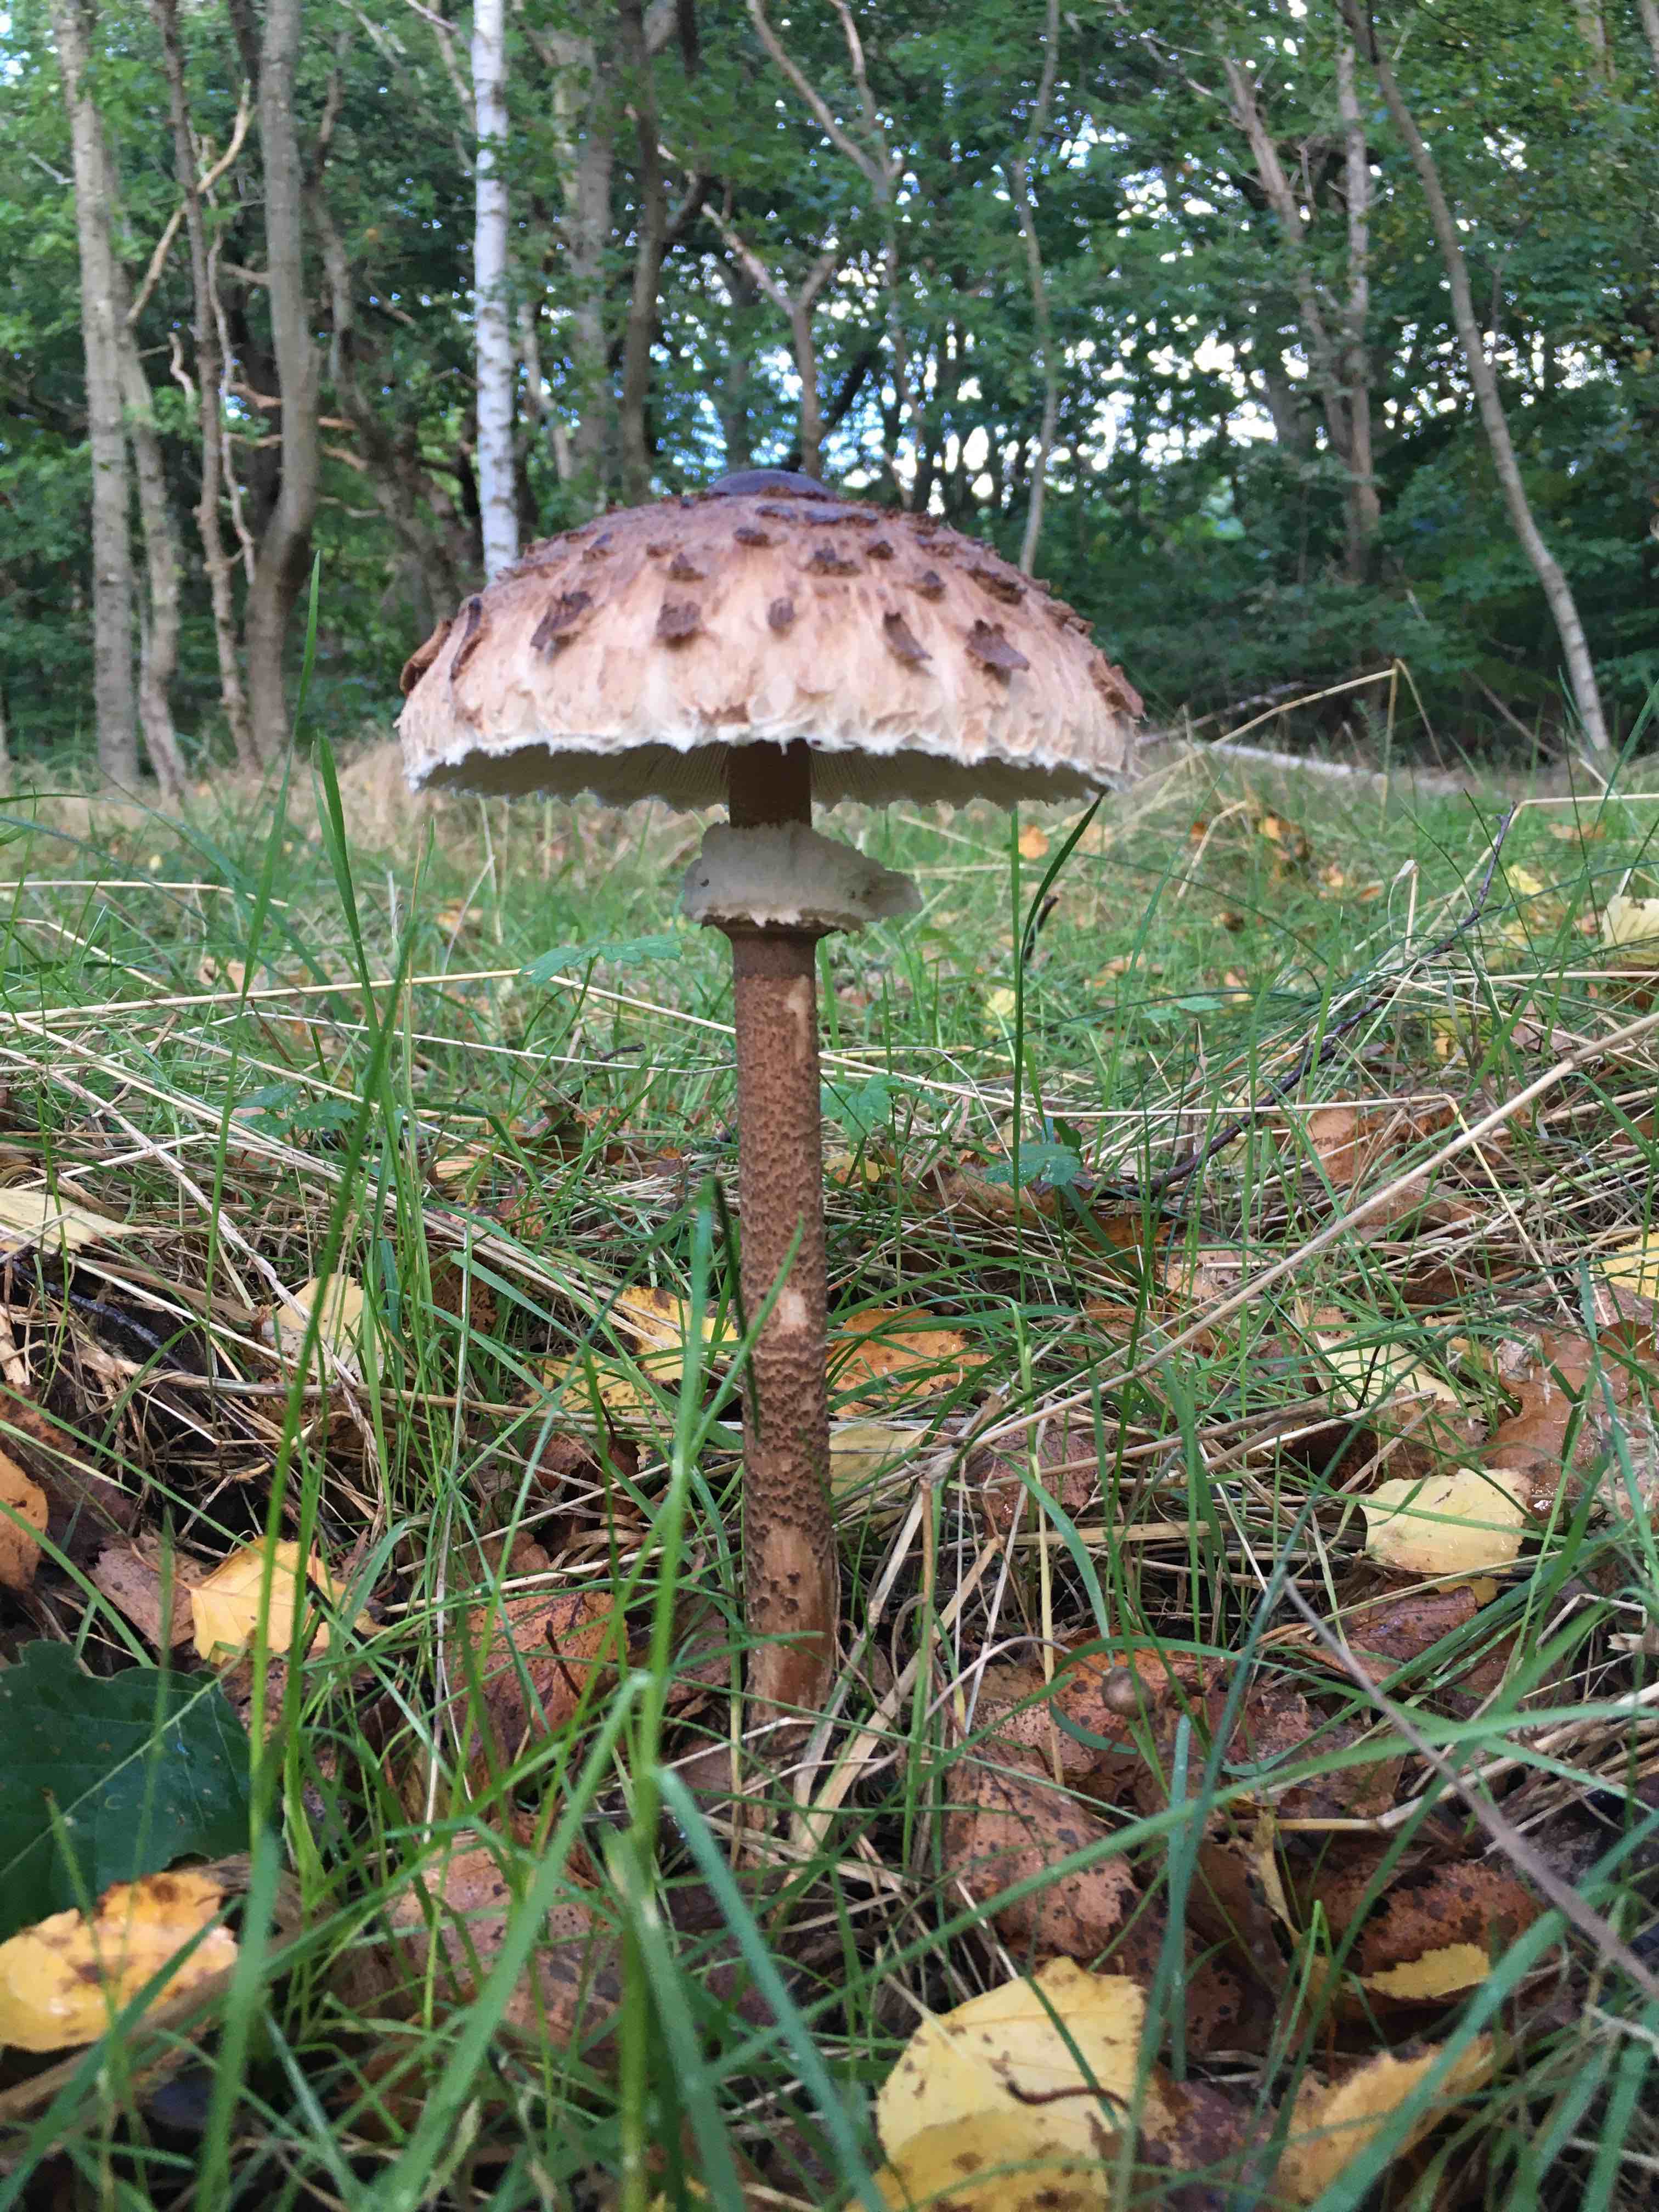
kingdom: Fungi
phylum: Basidiomycota
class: Agaricomycetes
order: Agaricales
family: Agaricaceae
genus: Macrolepiota
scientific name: Macrolepiota procera
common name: stor kæmpeparasolhat
